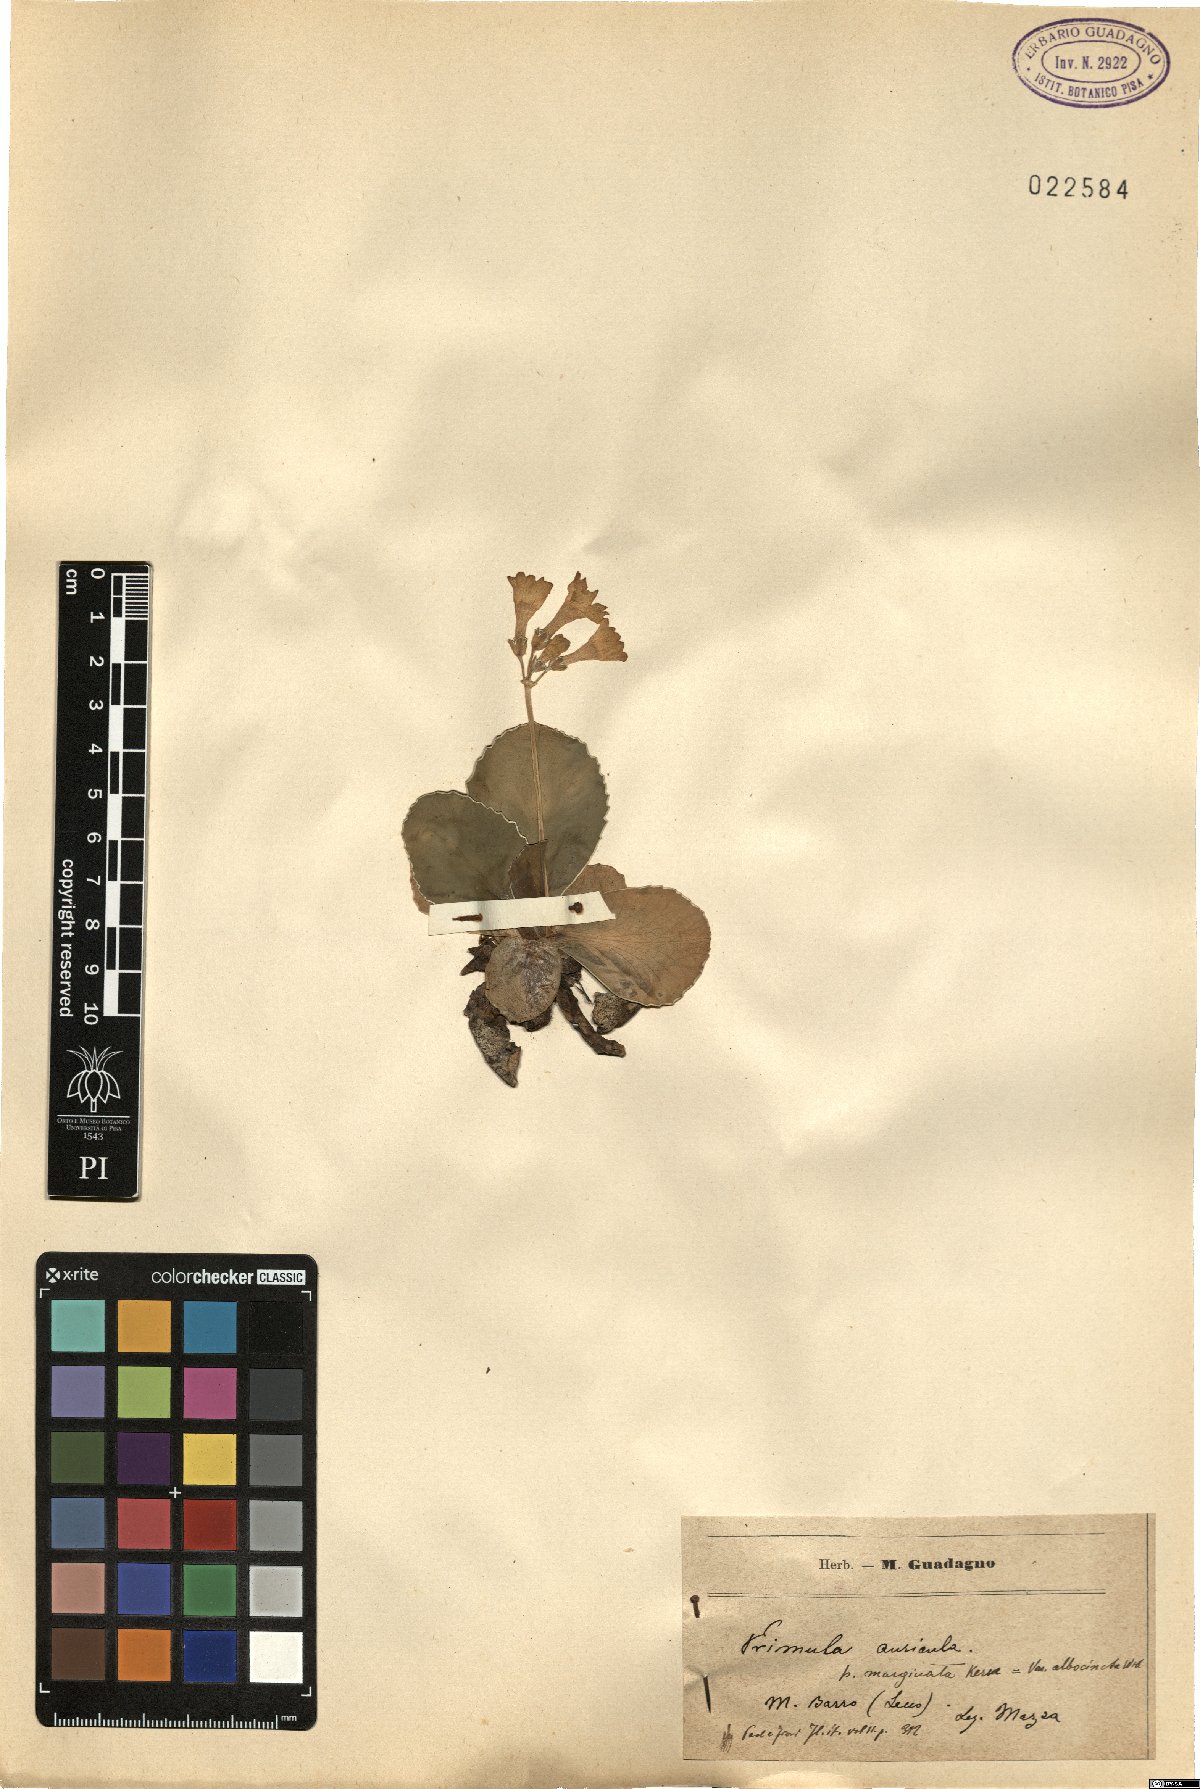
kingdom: Plantae
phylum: Tracheophyta
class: Magnoliopsida
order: Ericales
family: Primulaceae
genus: Primula
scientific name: Primula auricula
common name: Auricula
